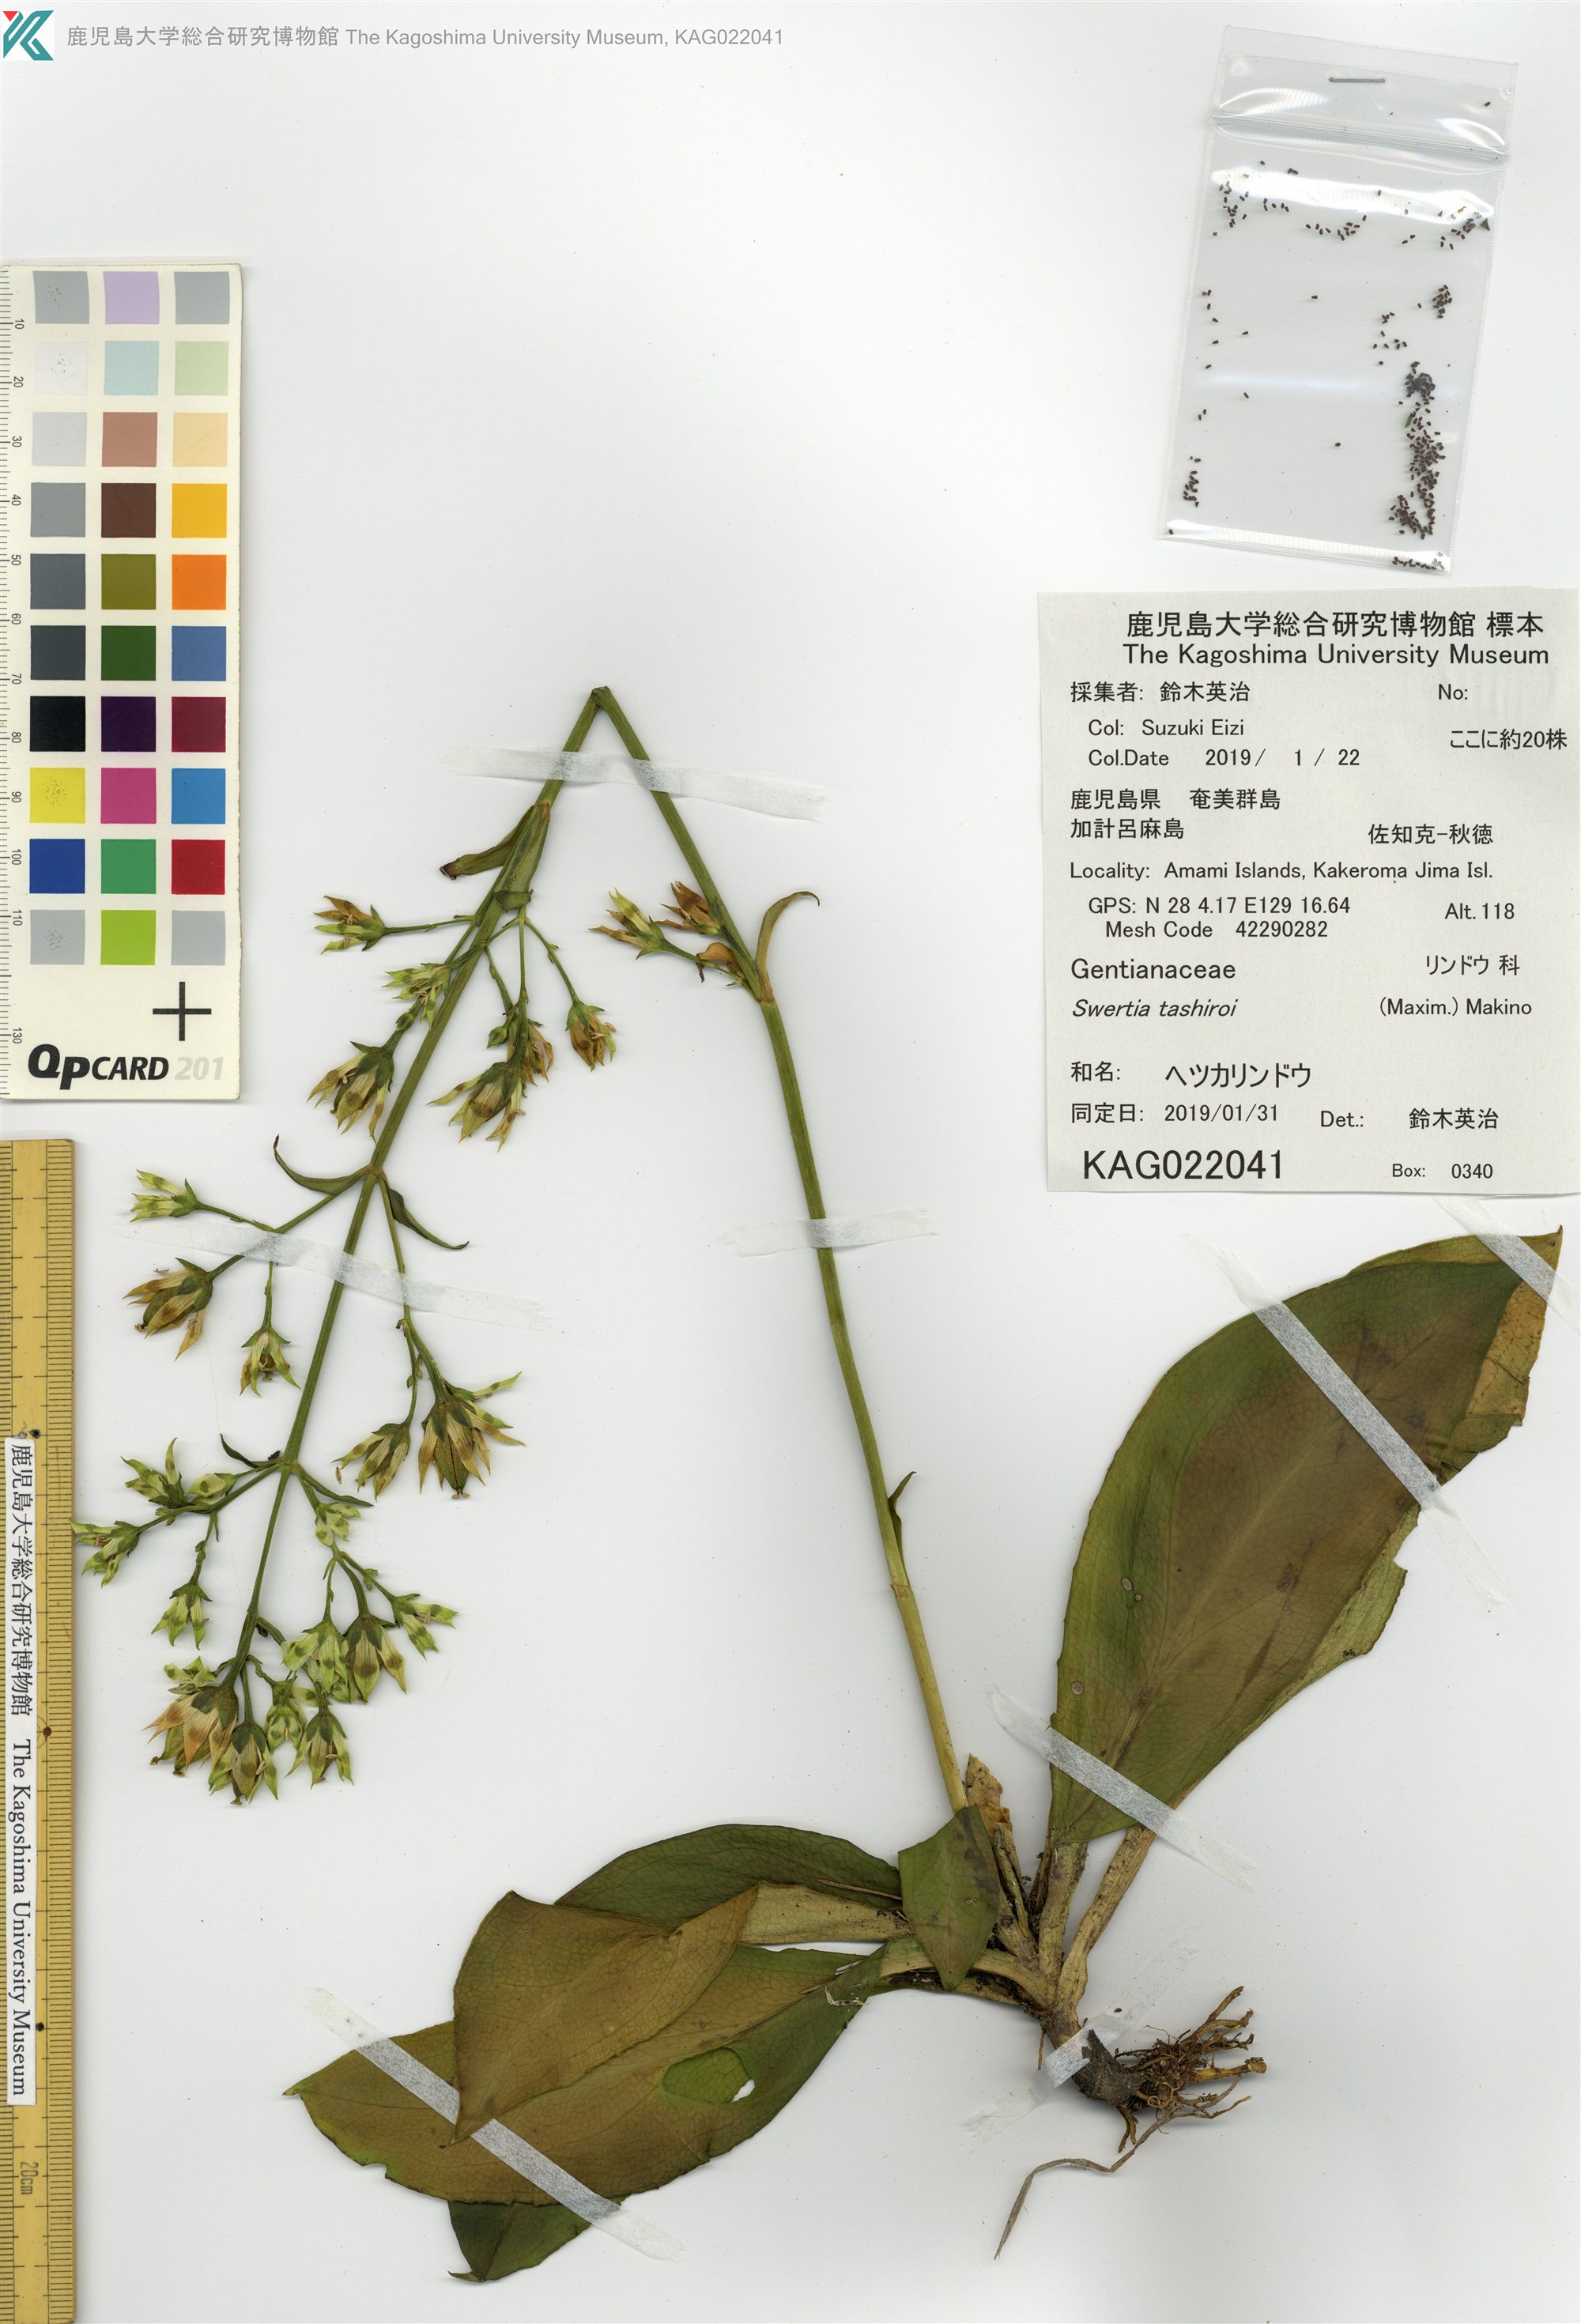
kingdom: Plantae
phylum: Tracheophyta
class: Magnoliopsida
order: Gentianales
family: Gentianaceae
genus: Swertia
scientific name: Swertia tashiroi
